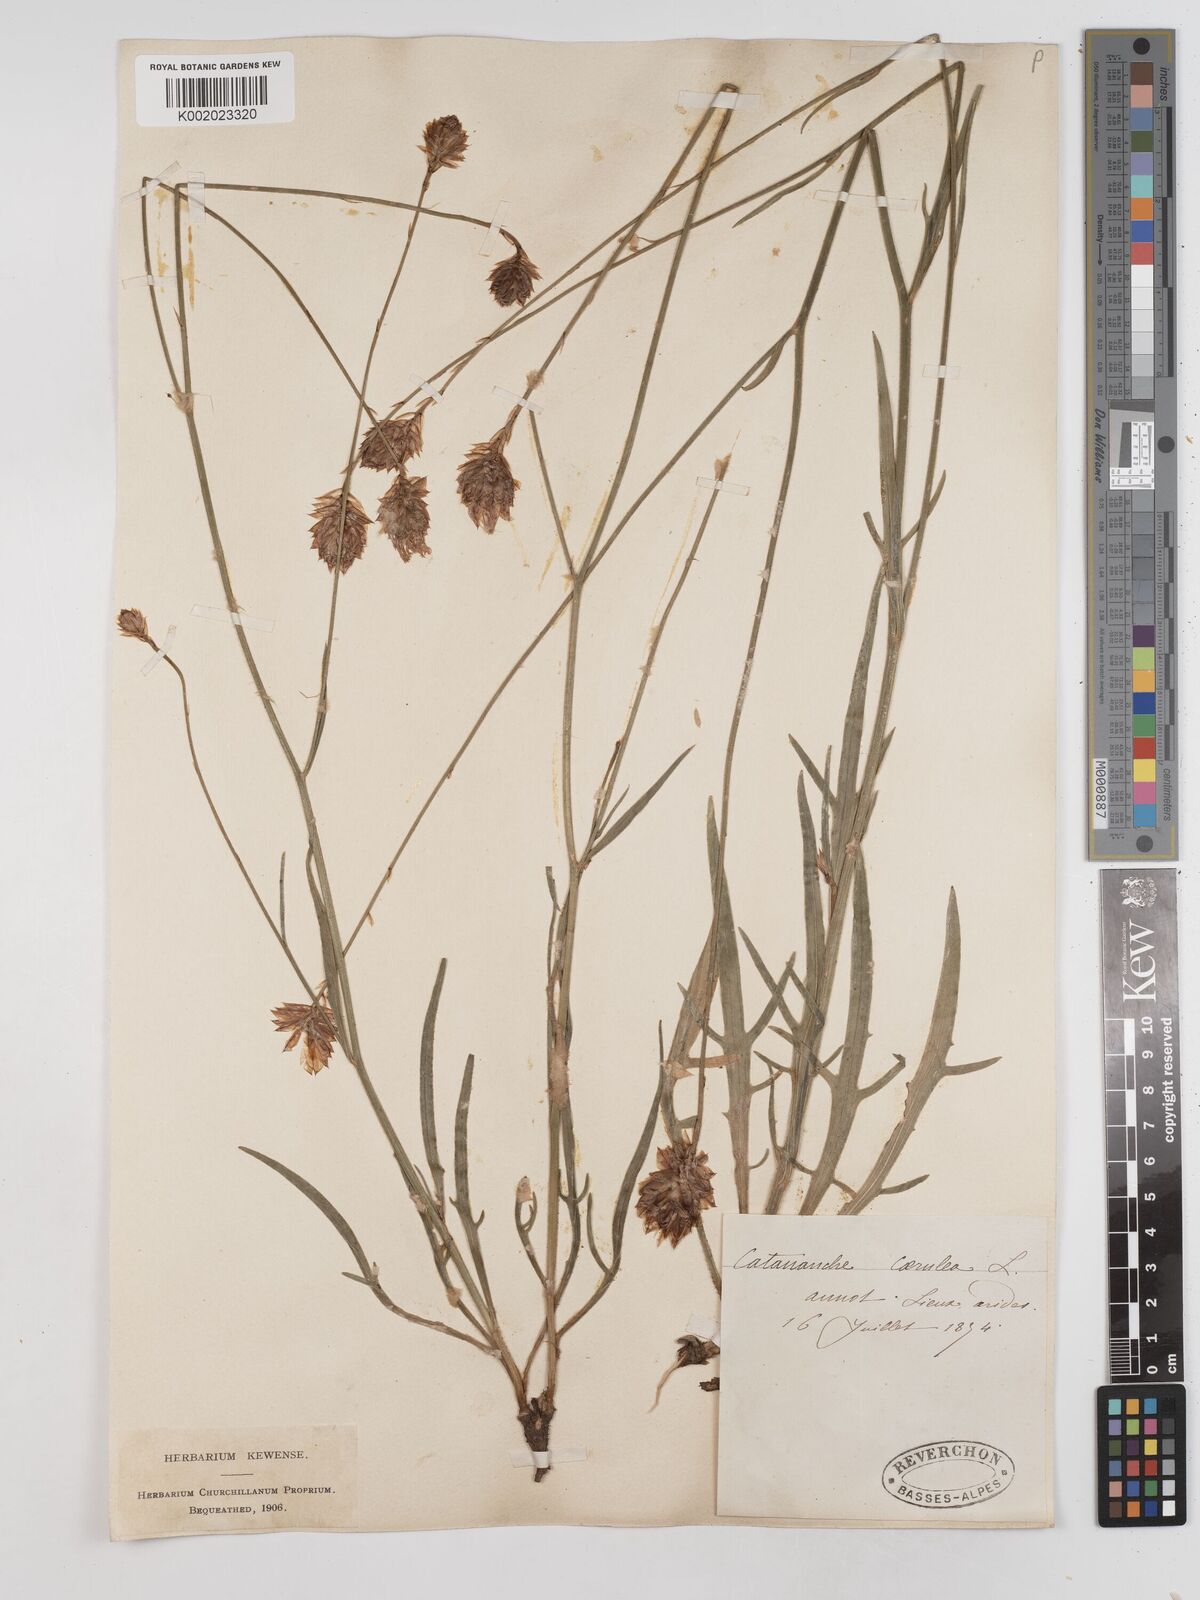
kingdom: Plantae
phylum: Tracheophyta
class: Magnoliopsida
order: Asterales
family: Asteraceae
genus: Catananche
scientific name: Catananche caerulea
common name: Blue cupidone
